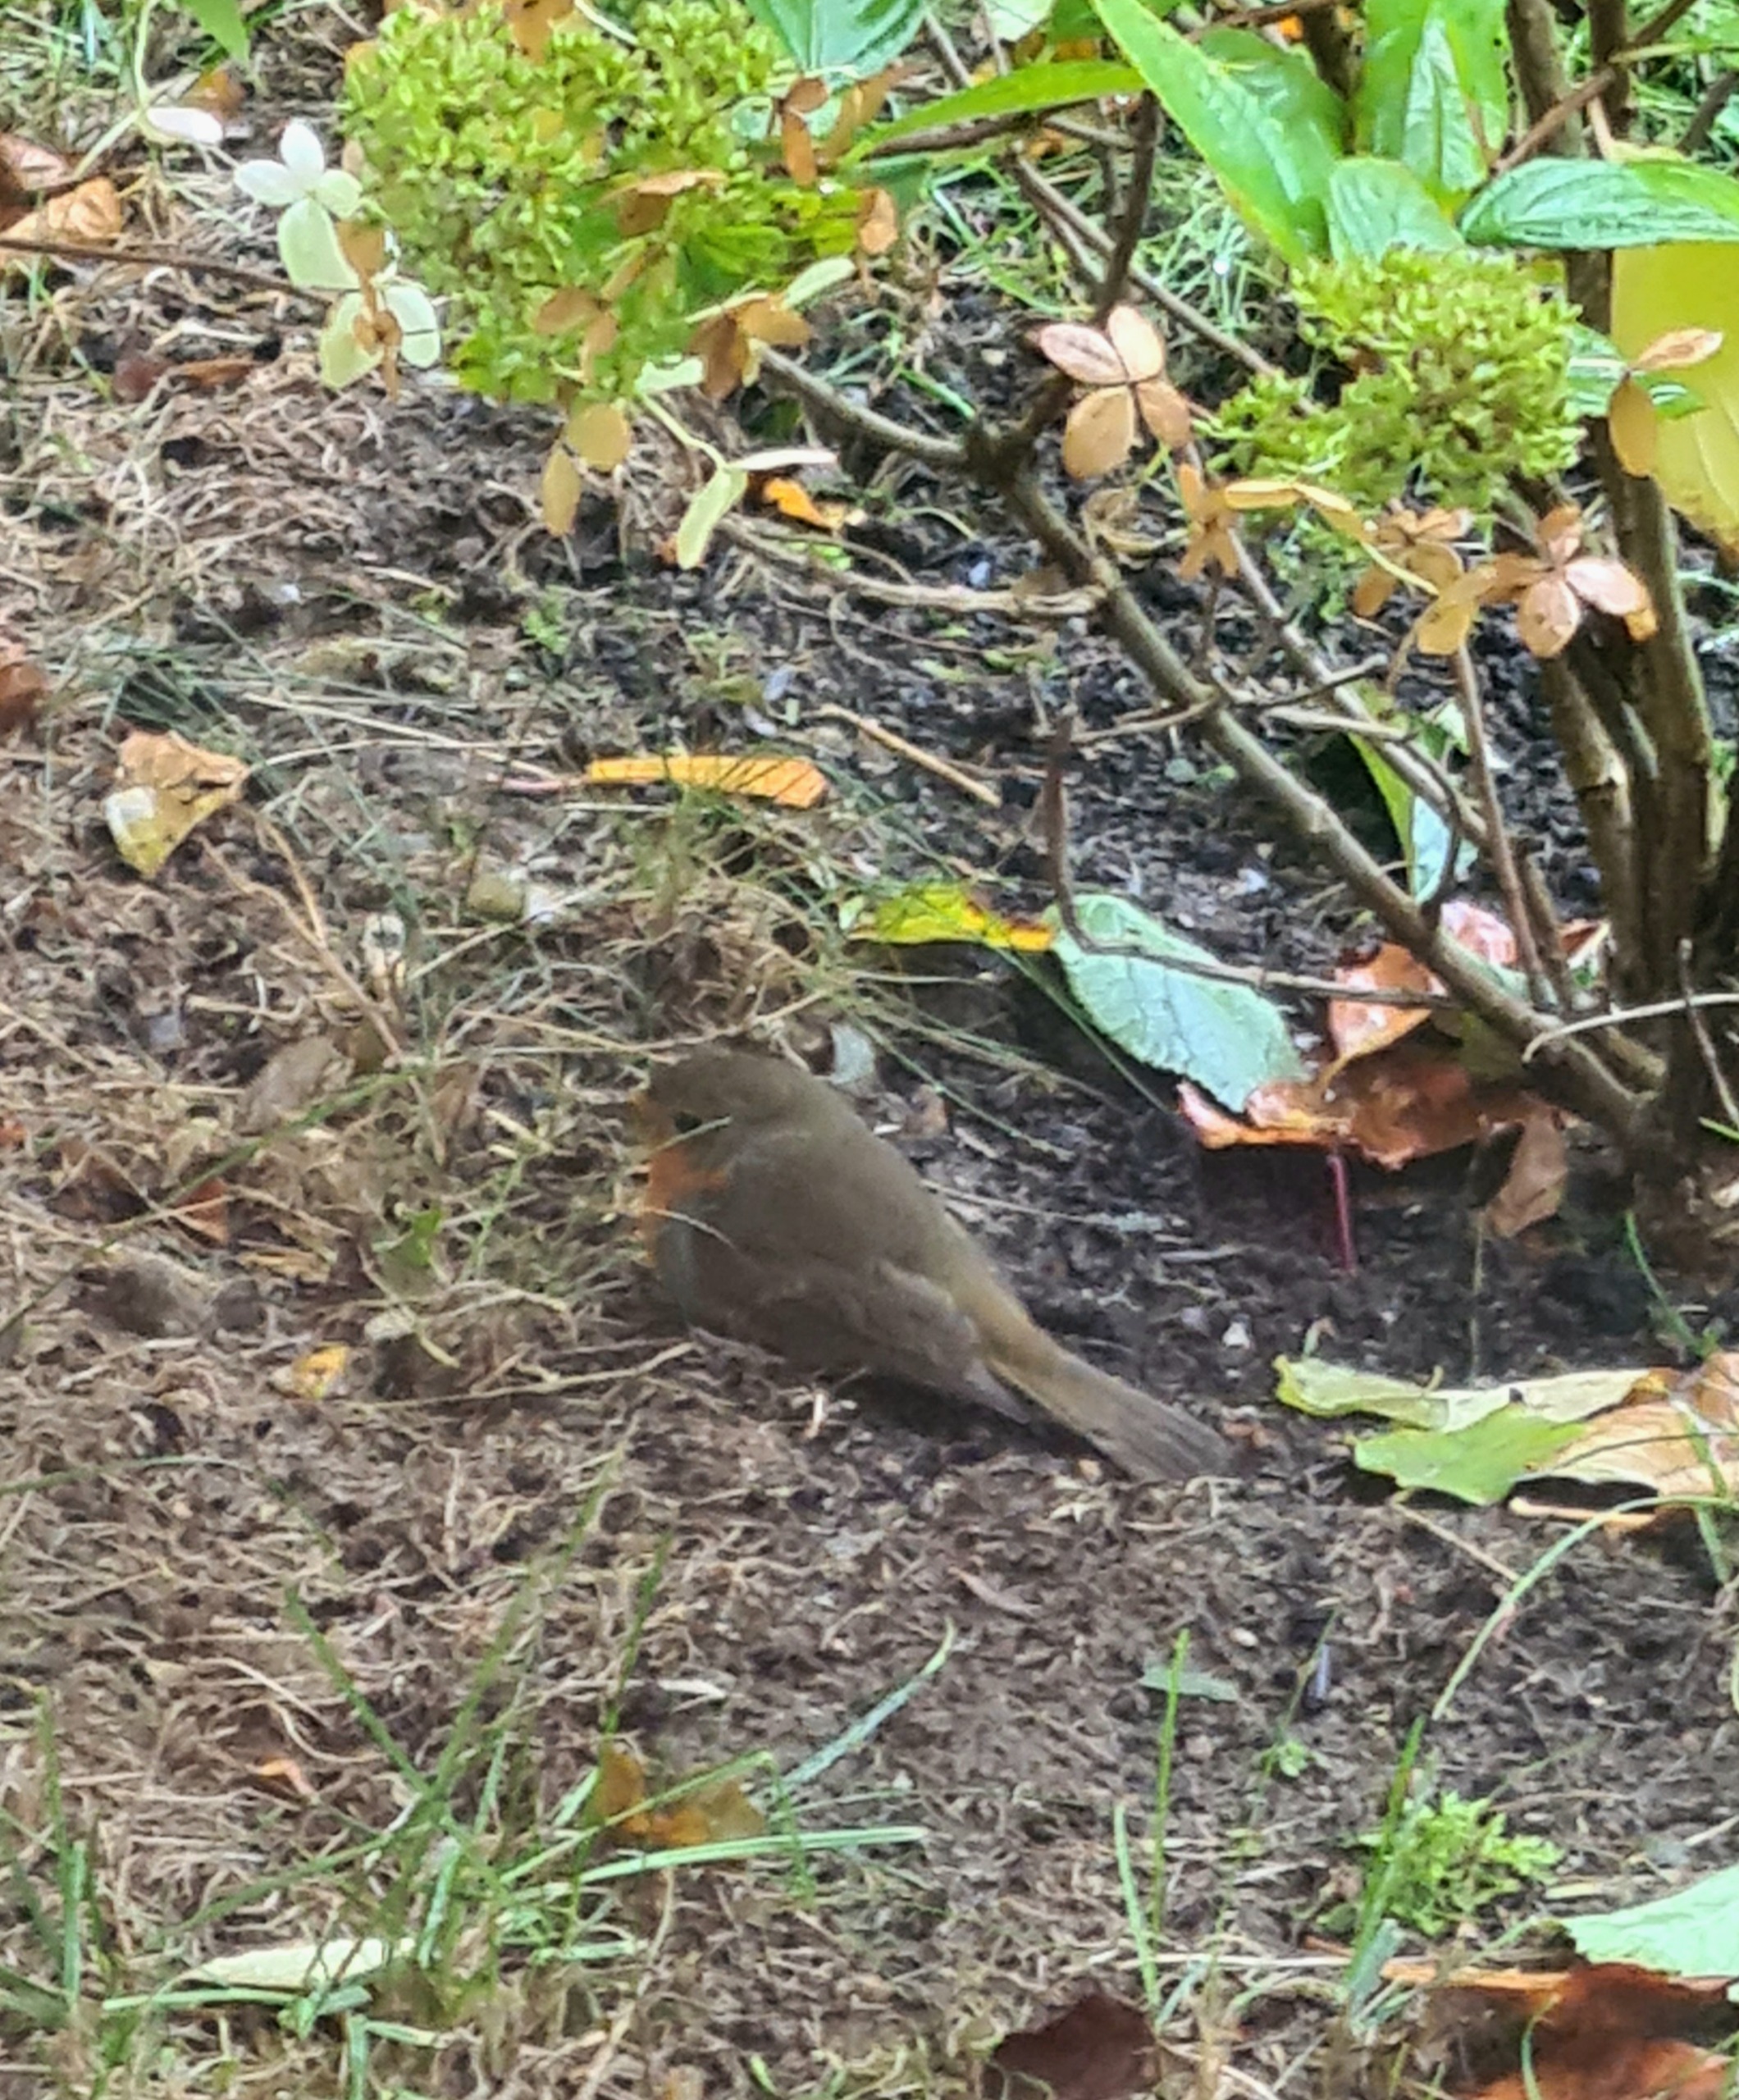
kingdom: Animalia
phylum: Chordata
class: Aves
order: Passeriformes
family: Muscicapidae
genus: Erithacus
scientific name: Erithacus rubecula
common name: Rødhals/rødkælk
